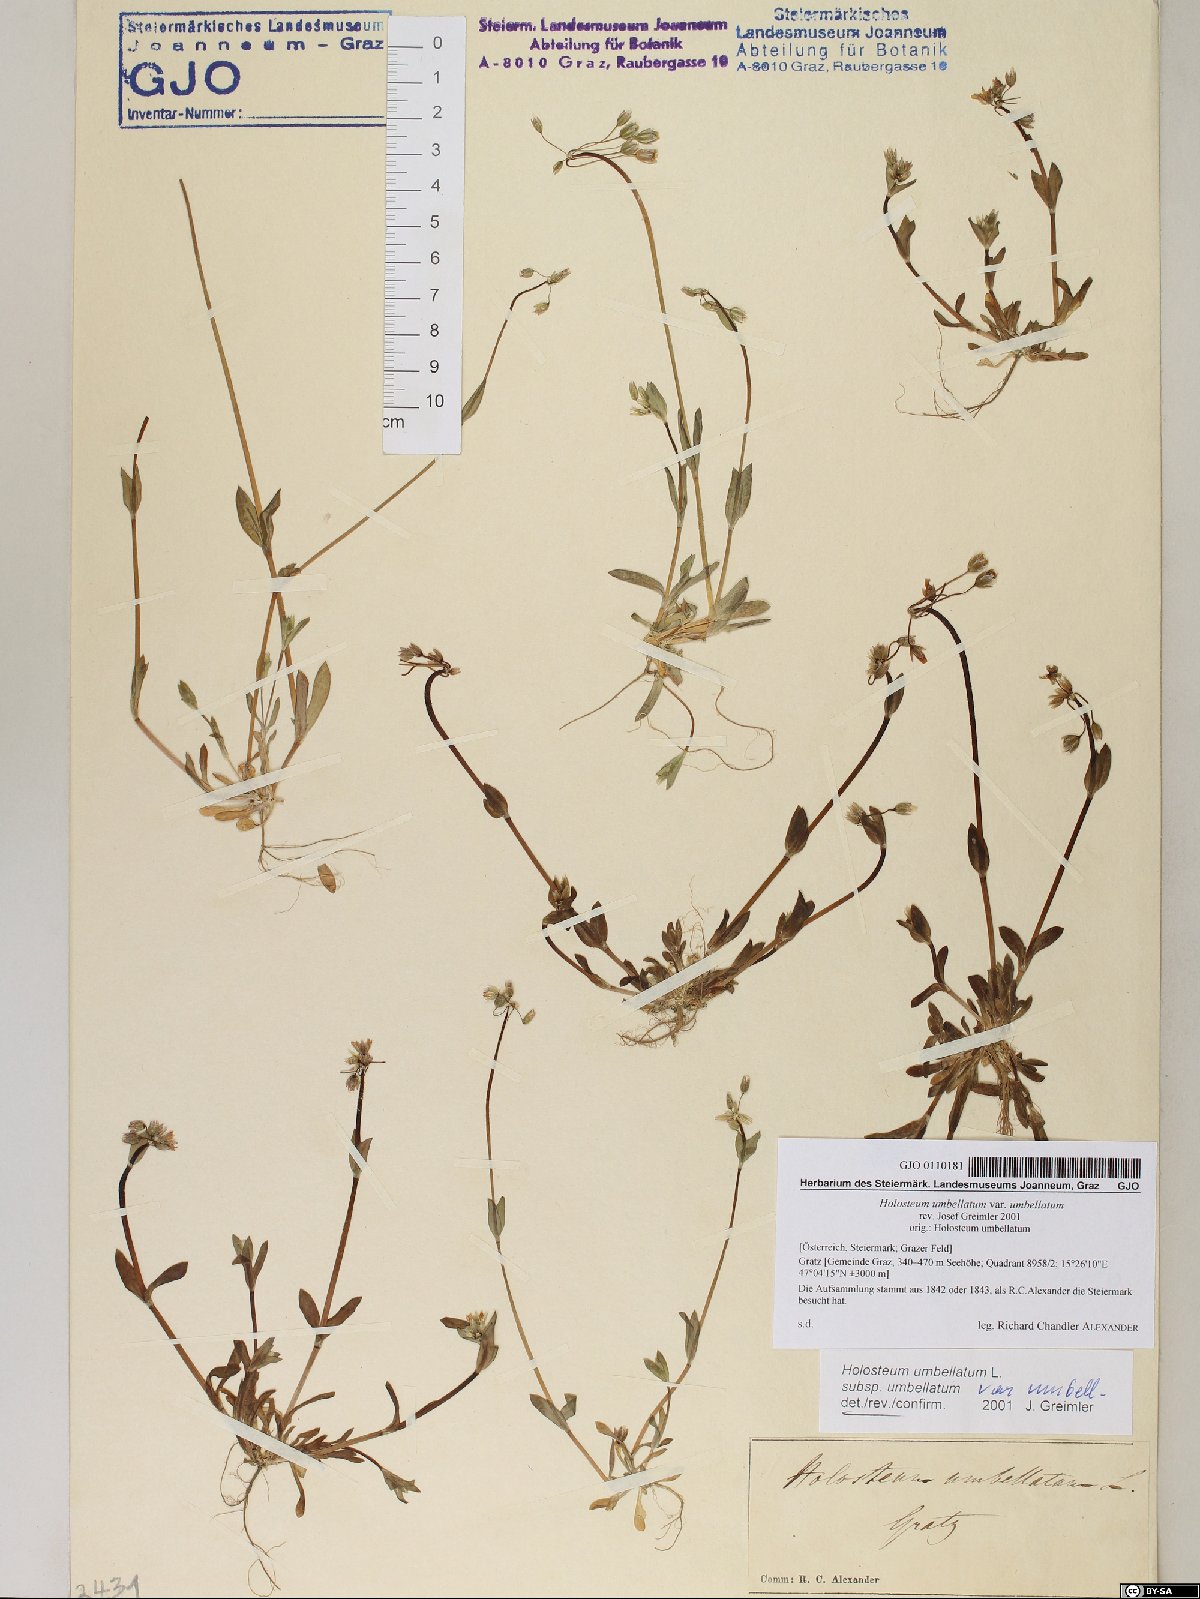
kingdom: Plantae
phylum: Tracheophyta
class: Magnoliopsida
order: Caryophyllales
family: Caryophyllaceae
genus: Holosteum
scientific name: Holosteum umbellatum
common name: Jagged chickweed
